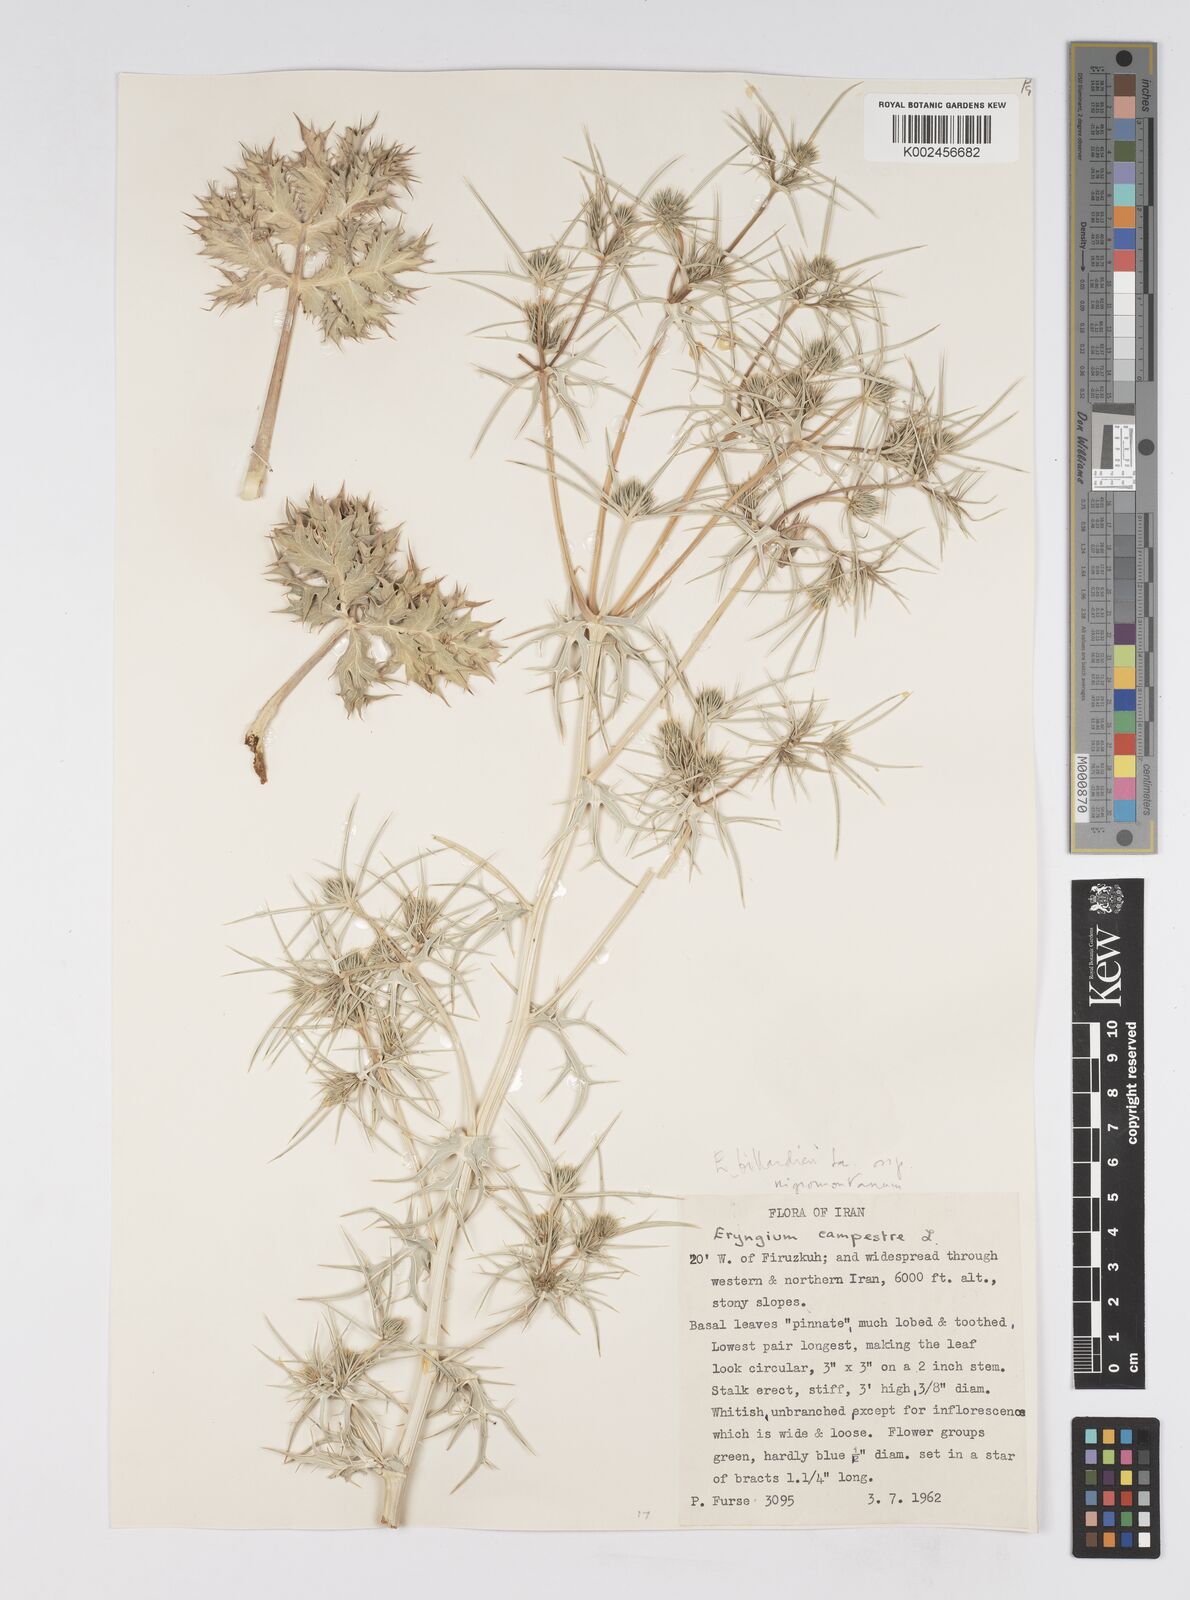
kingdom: Plantae
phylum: Tracheophyta
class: Magnoliopsida
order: Apiales
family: Apiaceae
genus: Eryngium
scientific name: Eryngium billardierei
